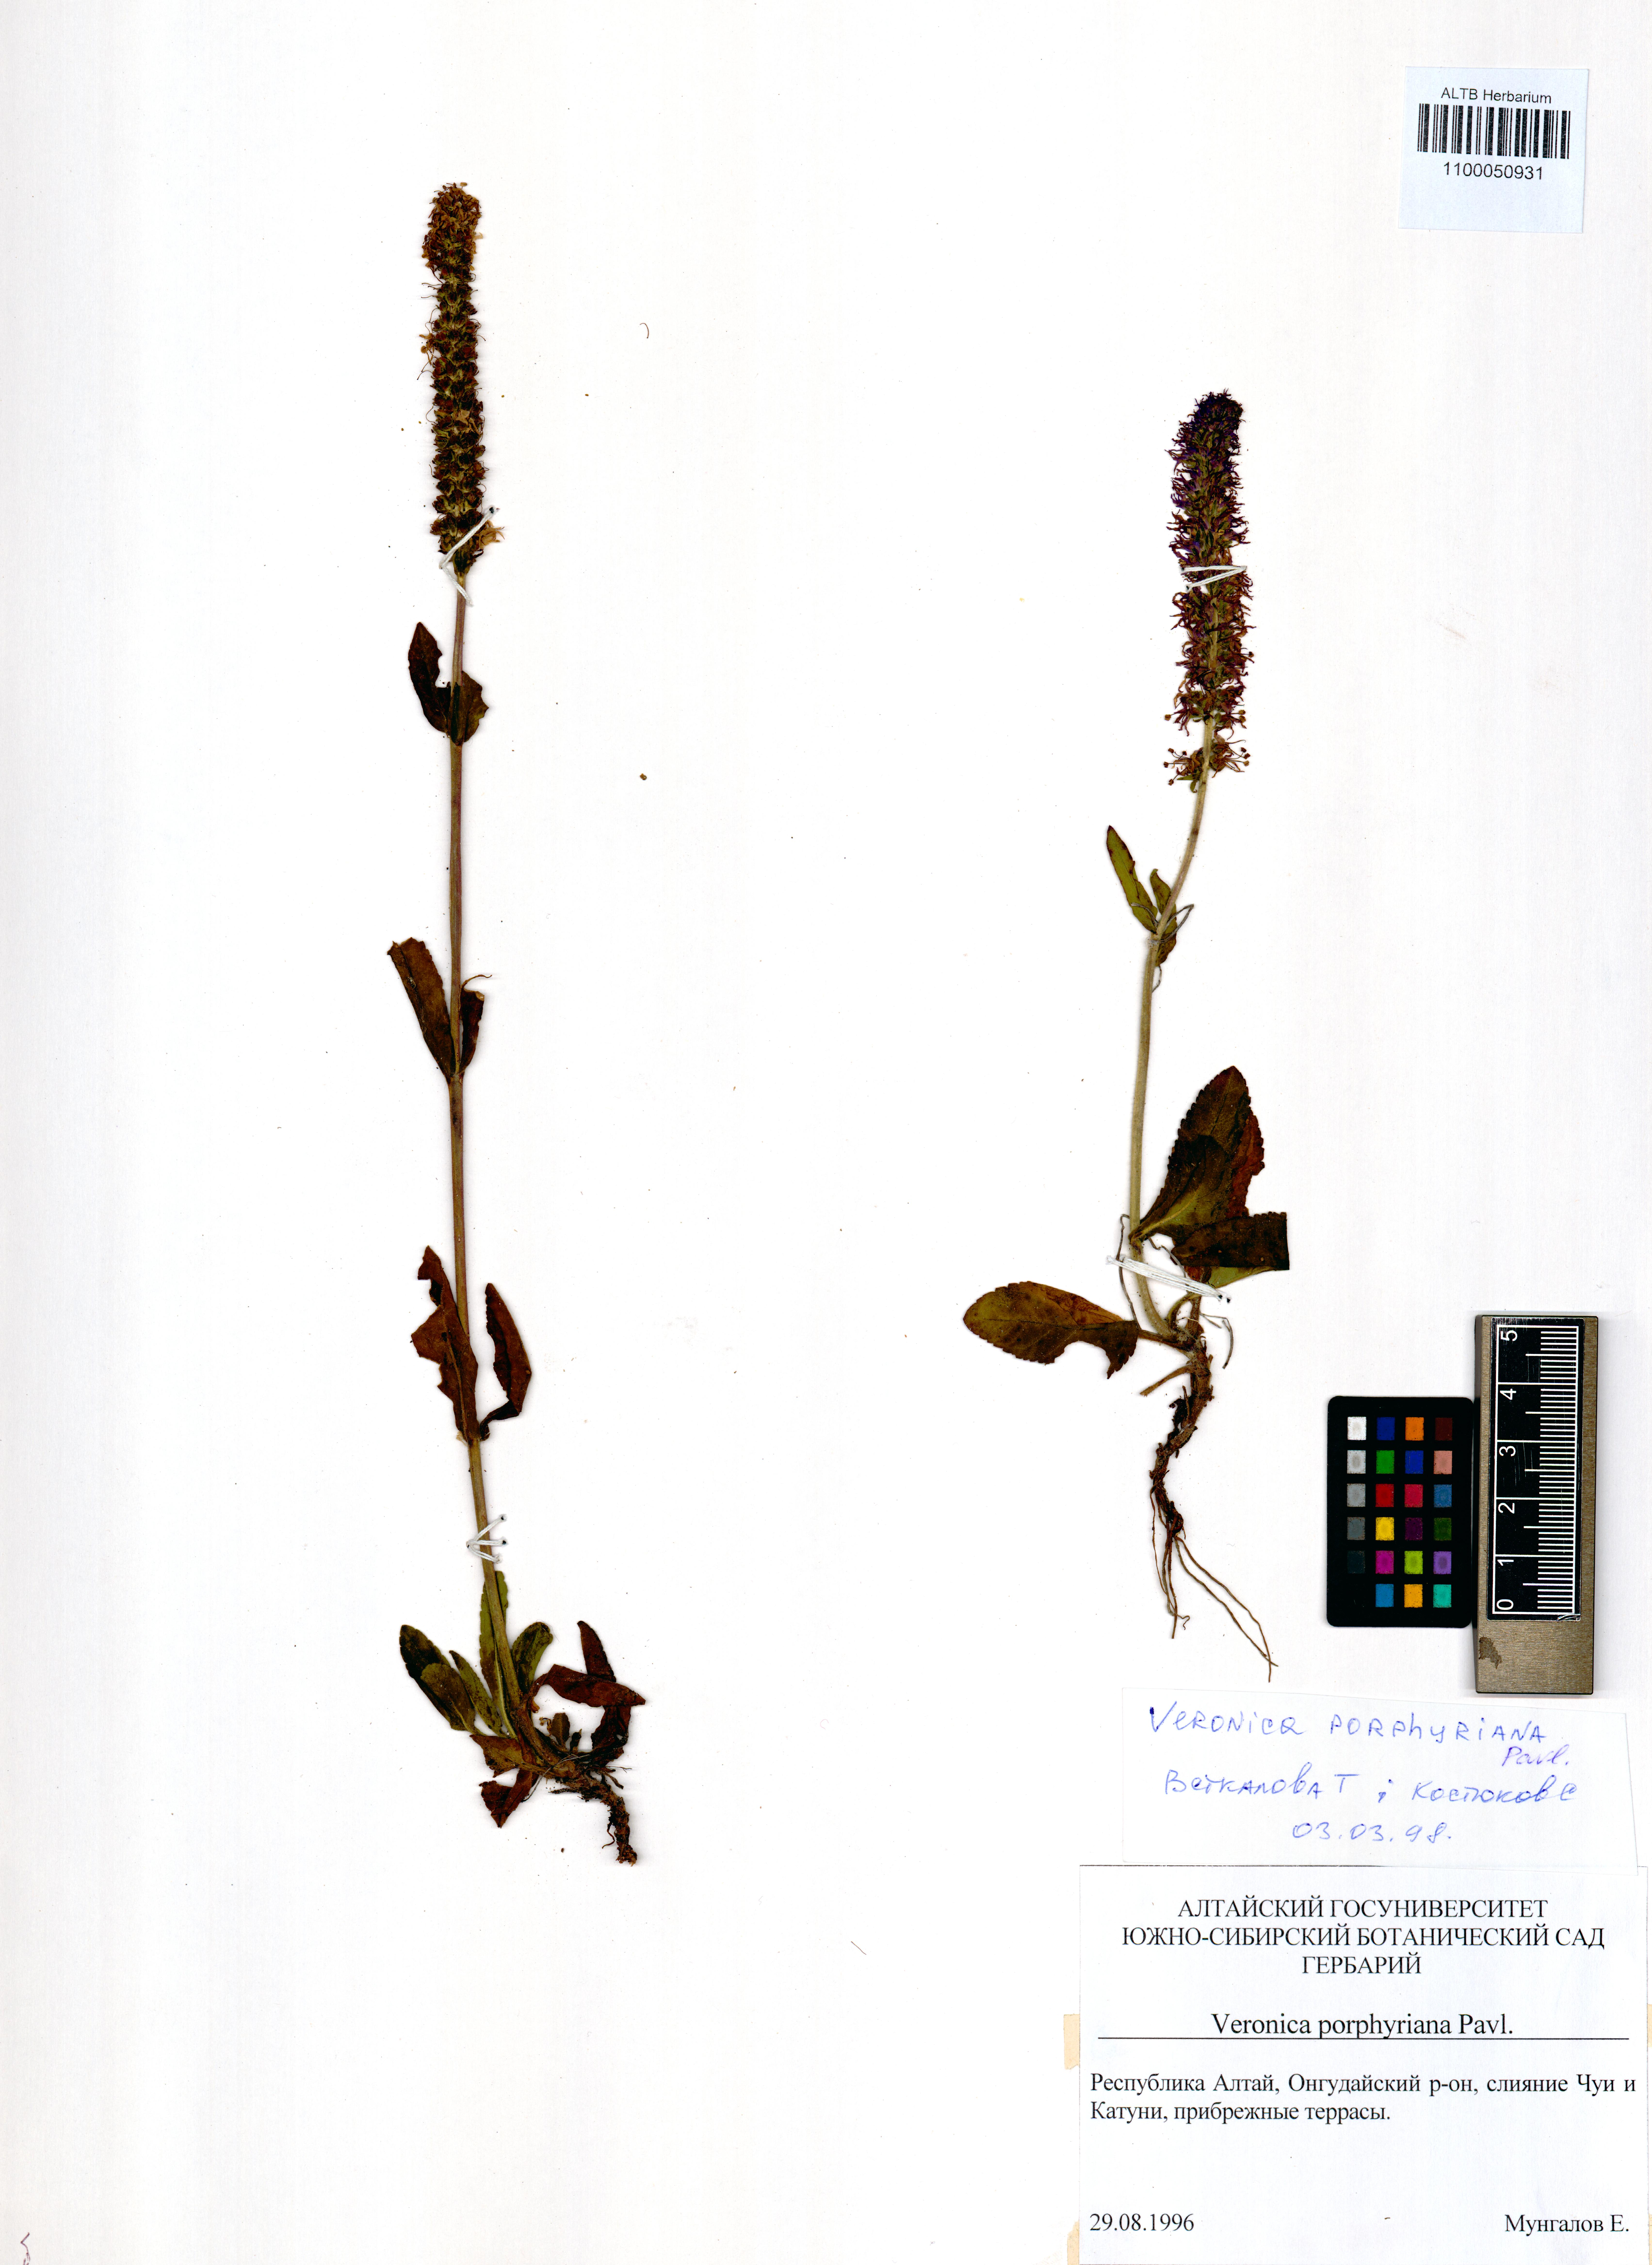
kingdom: Plantae
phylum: Tracheophyta
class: Magnoliopsida
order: Lamiales
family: Plantaginaceae
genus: Veronica
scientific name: Veronica porphyriana
